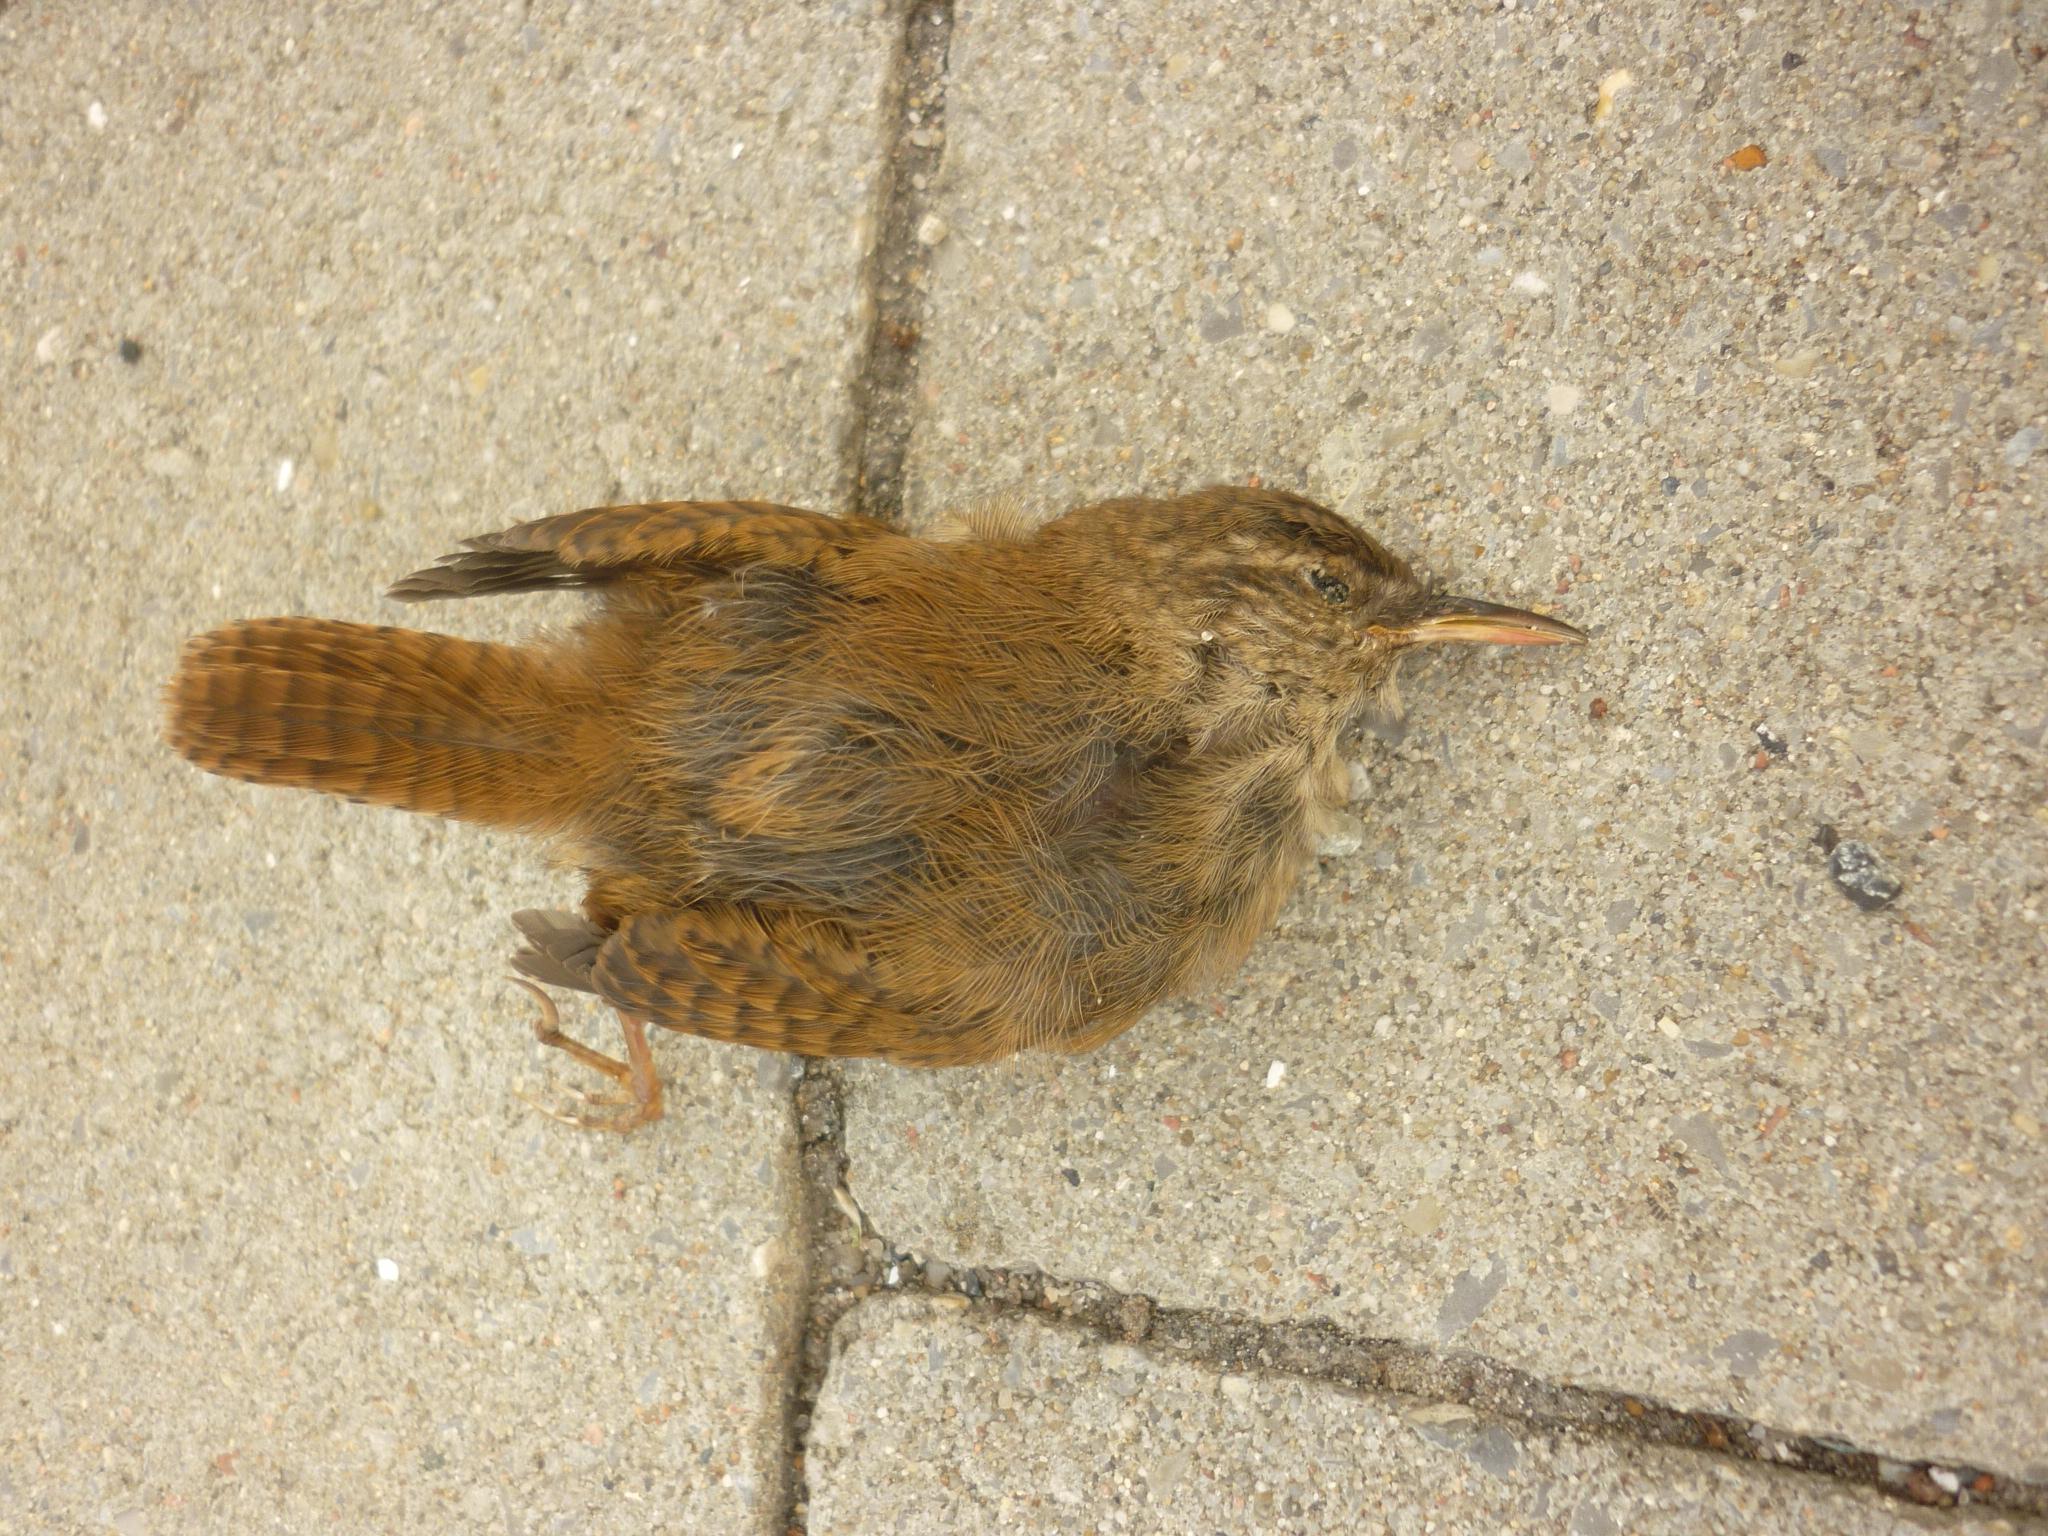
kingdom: Animalia
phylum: Chordata
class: Aves
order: Passeriformes
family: Troglodytidae
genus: Troglodytes
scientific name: Troglodytes troglodytes
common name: Eurasian wren
